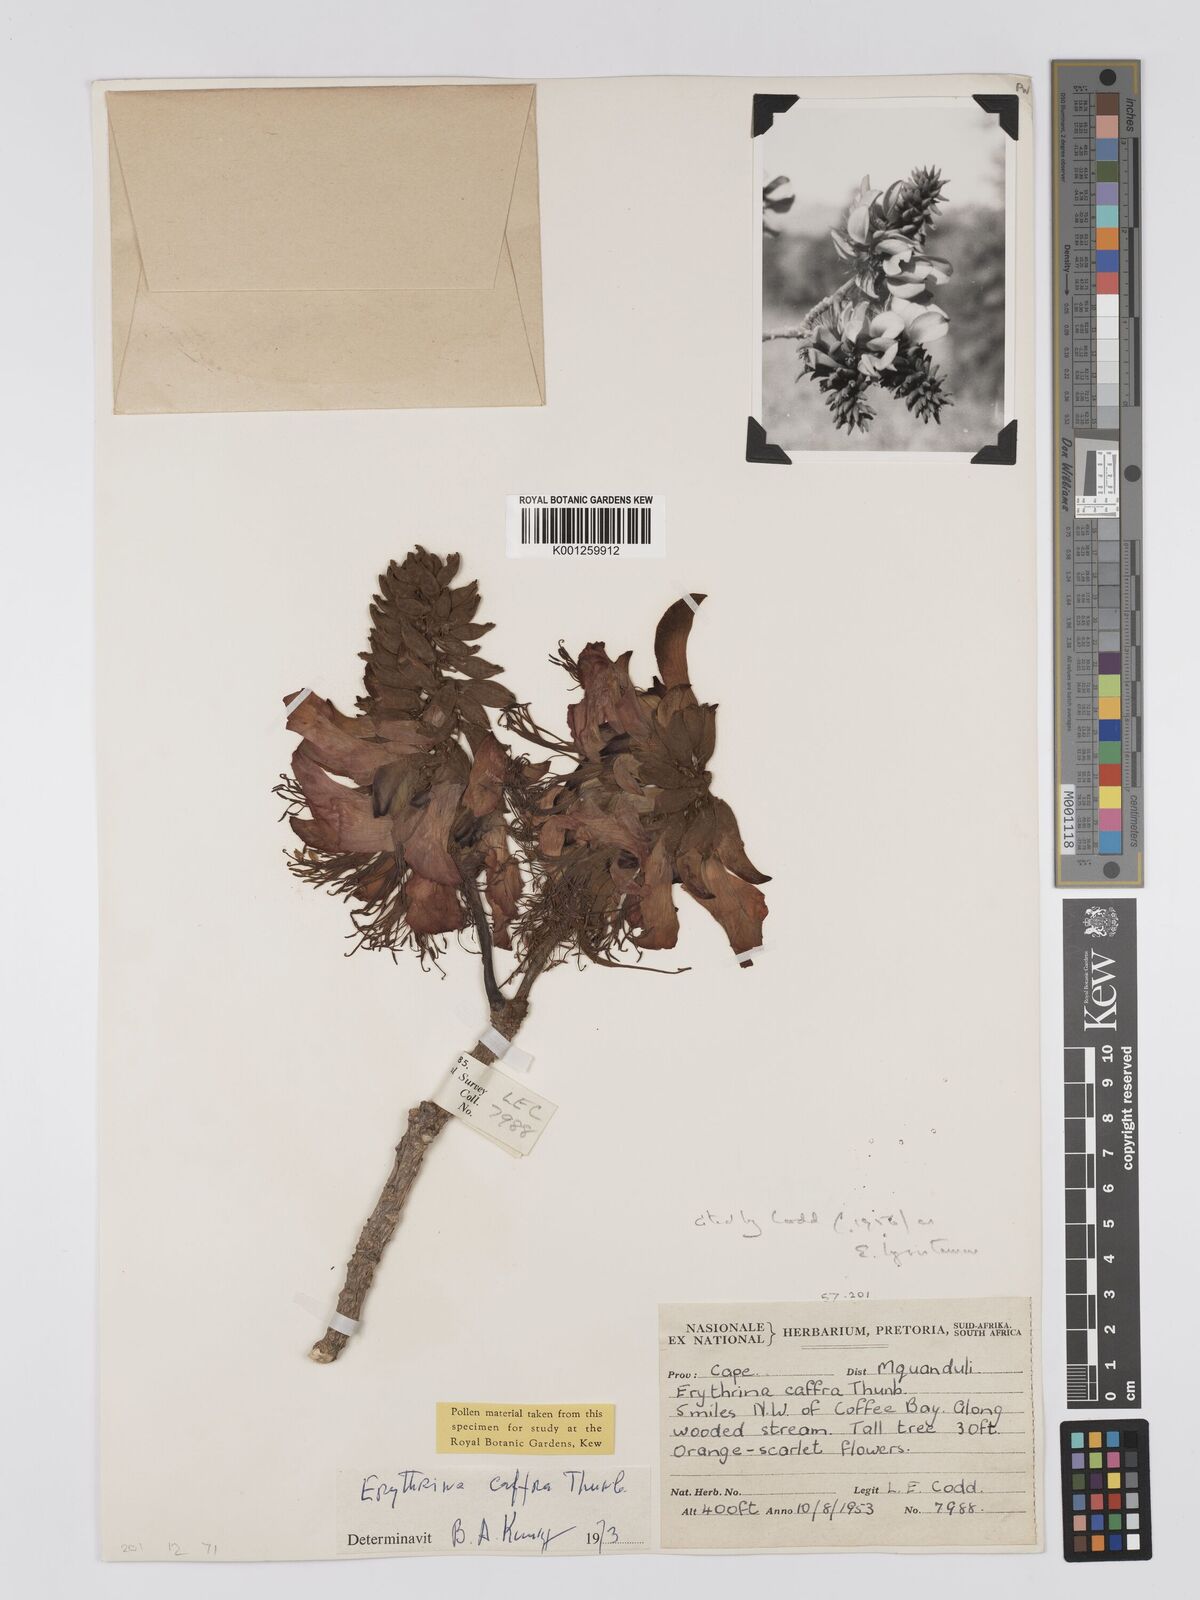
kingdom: Plantae
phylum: Tracheophyta
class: Magnoliopsida
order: Fabales
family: Fabaceae
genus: Erythrina
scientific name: Erythrina caffra
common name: Coast coral tree
